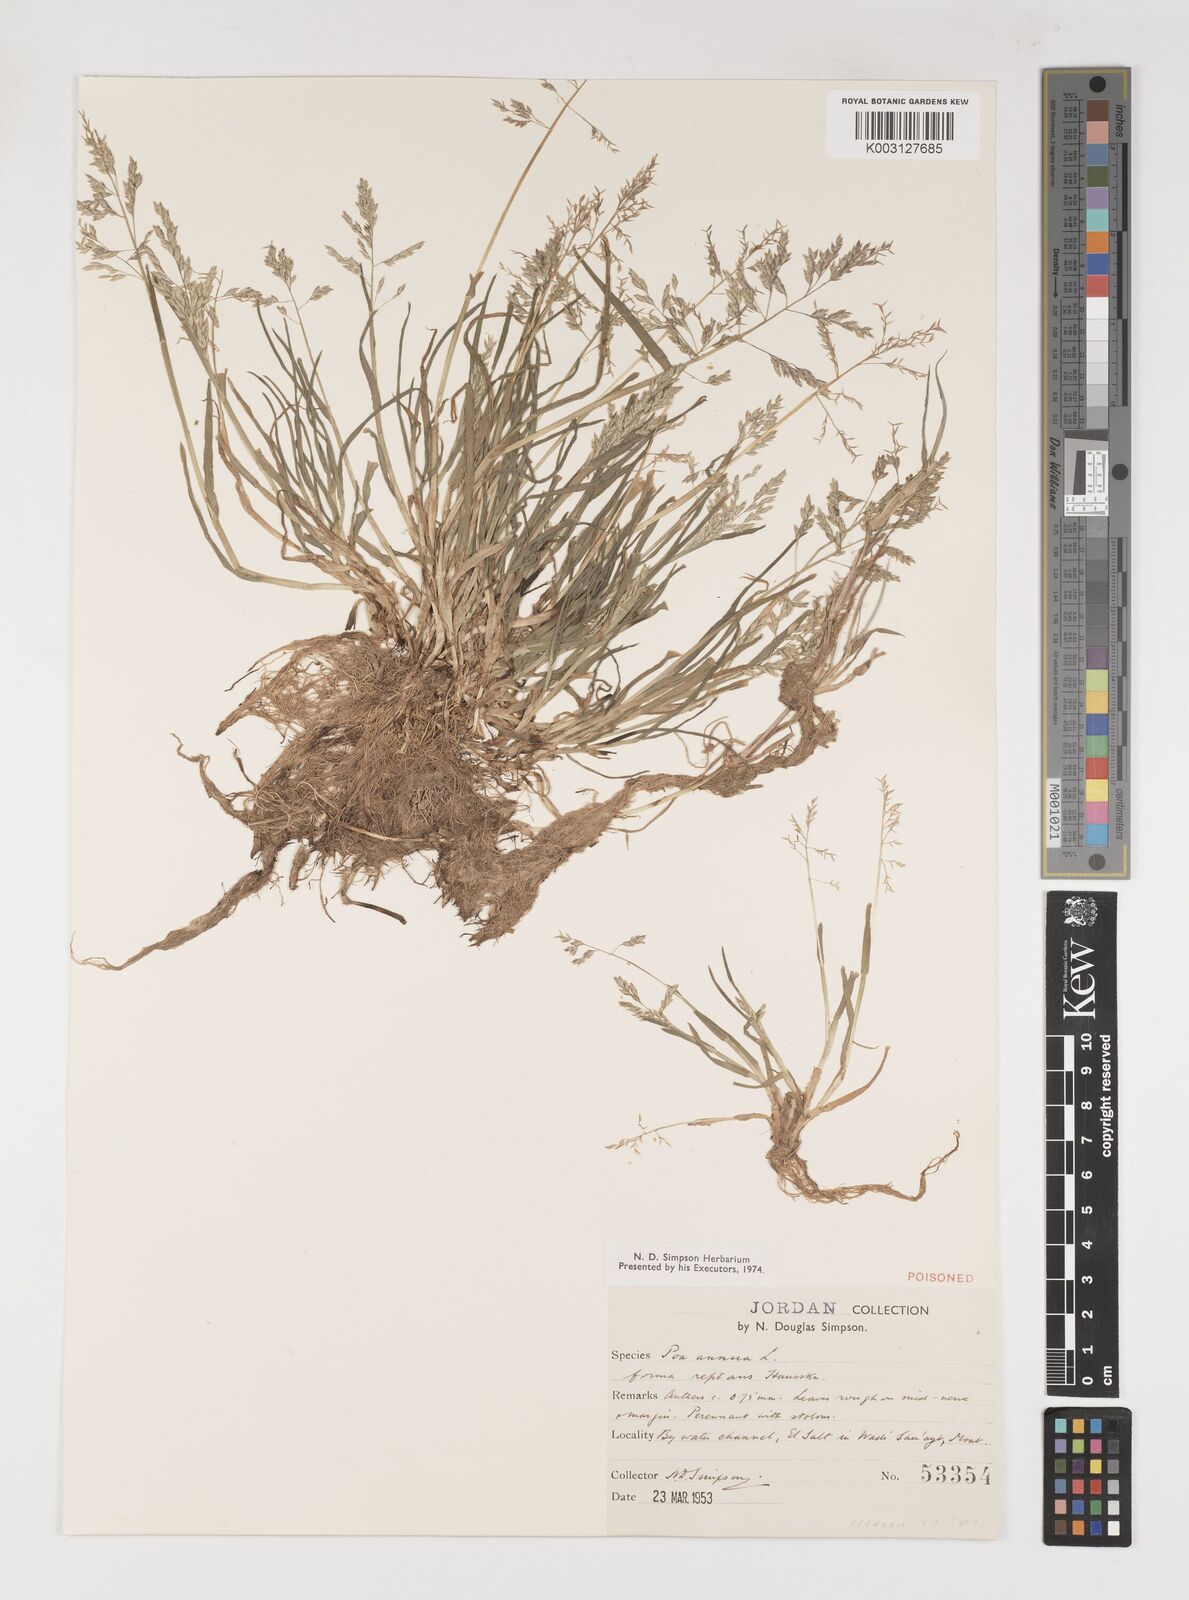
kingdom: Plantae
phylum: Tracheophyta
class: Liliopsida
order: Poales
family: Poaceae
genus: Poa
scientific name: Poa annua
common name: Annual bluegrass
